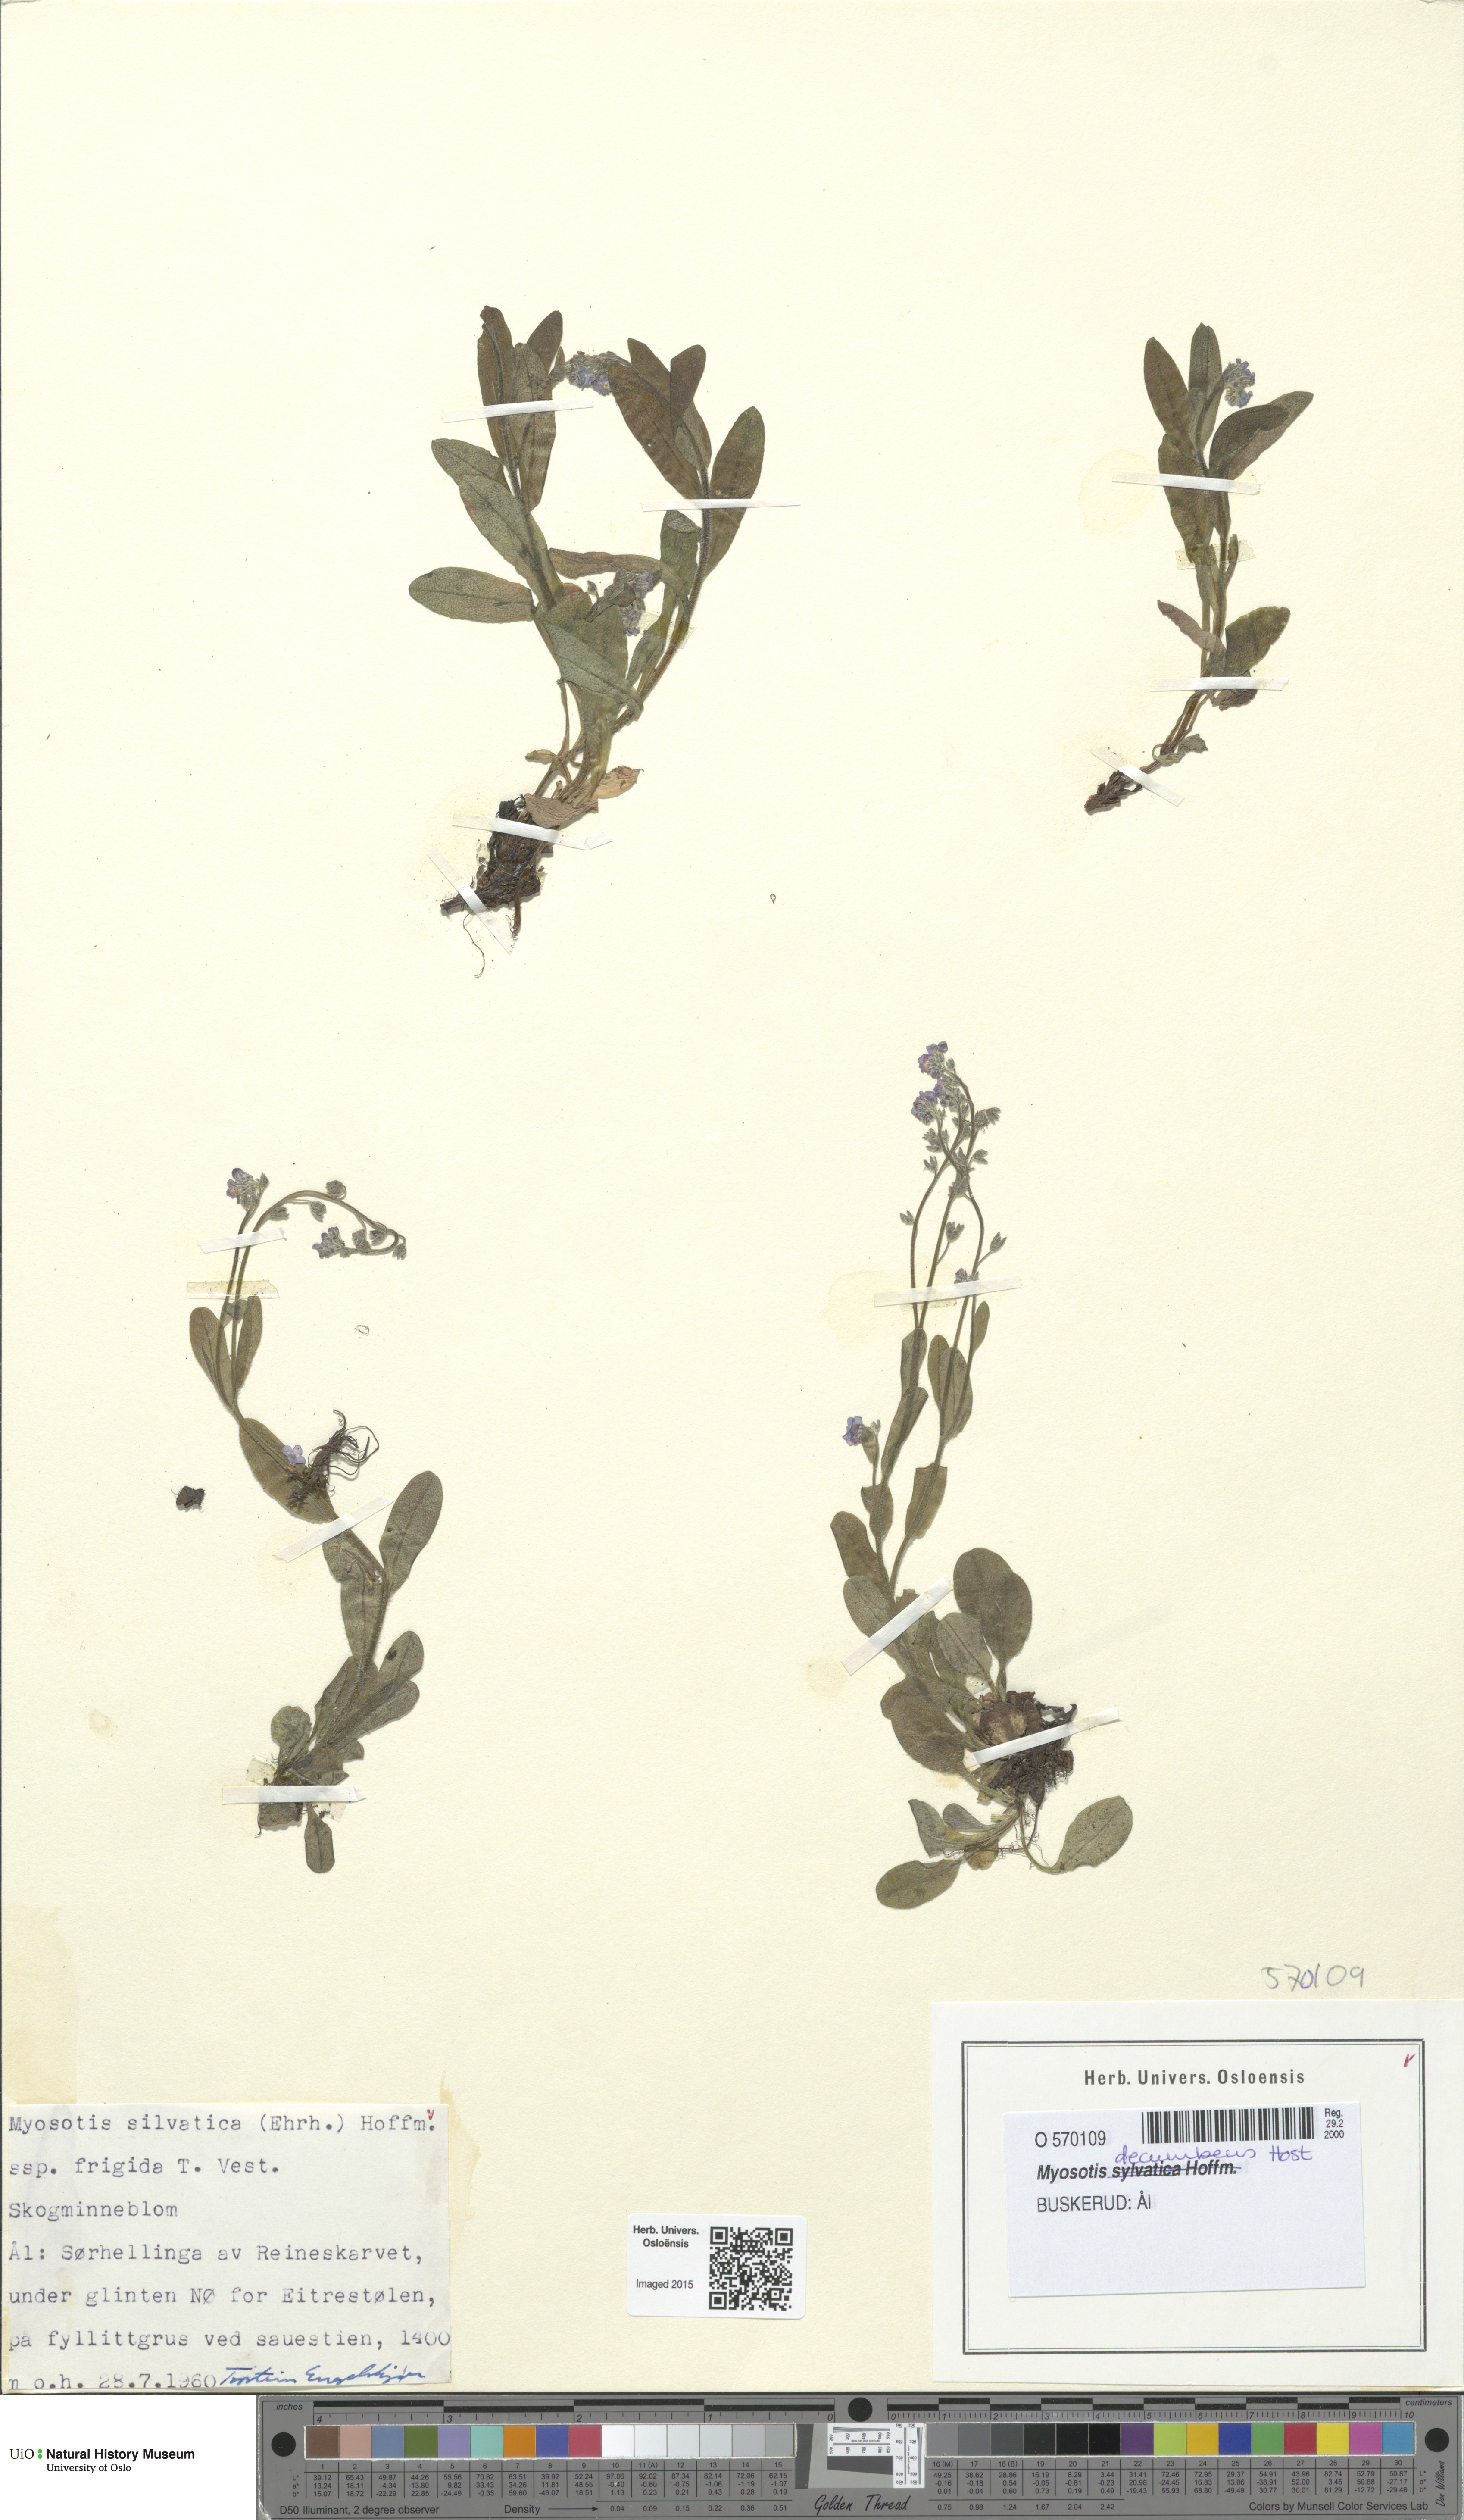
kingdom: Plantae
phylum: Tracheophyta
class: Magnoliopsida
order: Boraginales
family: Boraginaceae
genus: Myosotis
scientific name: Myosotis decumbens
